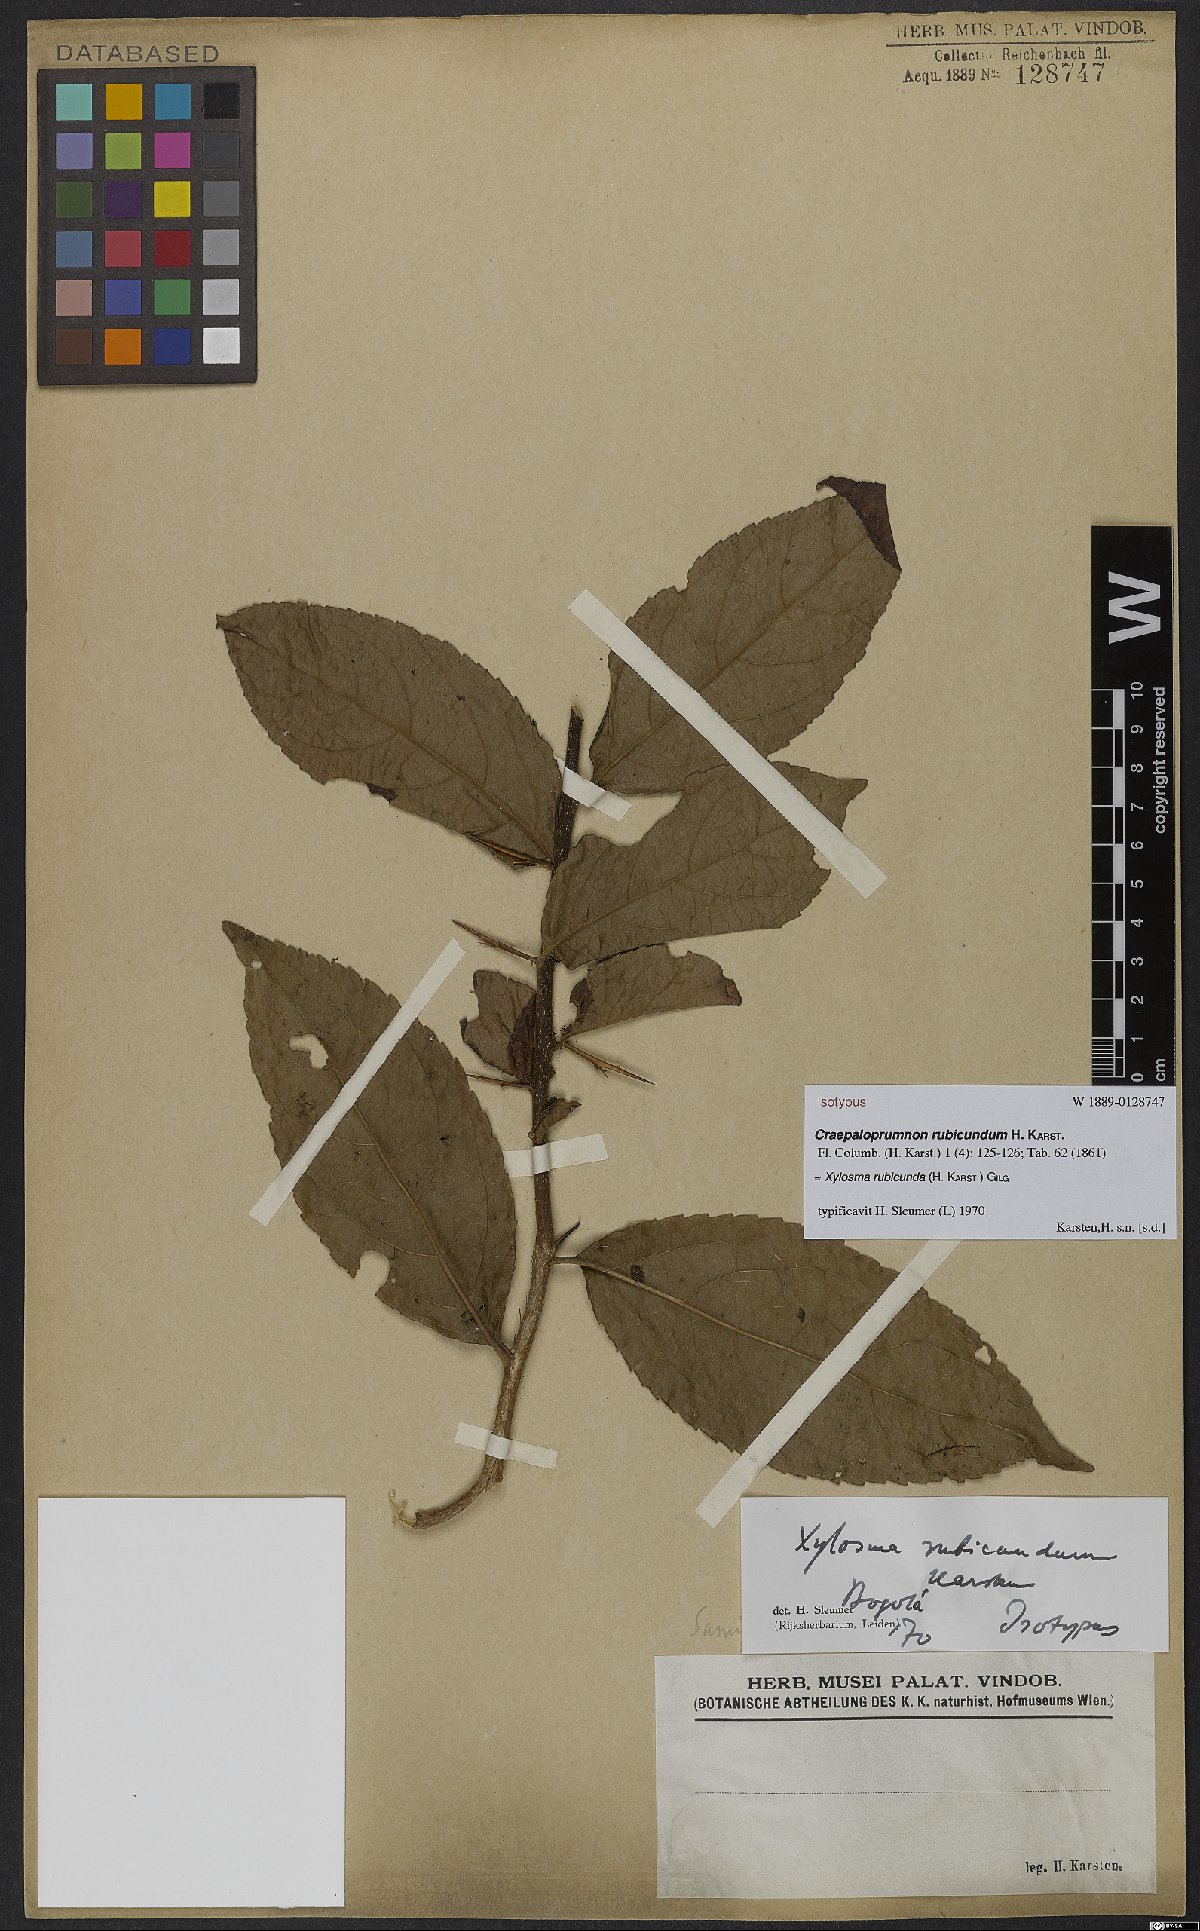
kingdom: Plantae
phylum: Tracheophyta
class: Magnoliopsida
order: Malpighiales
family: Salicaceae
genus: Xylosma
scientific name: Xylosma rubicundum
